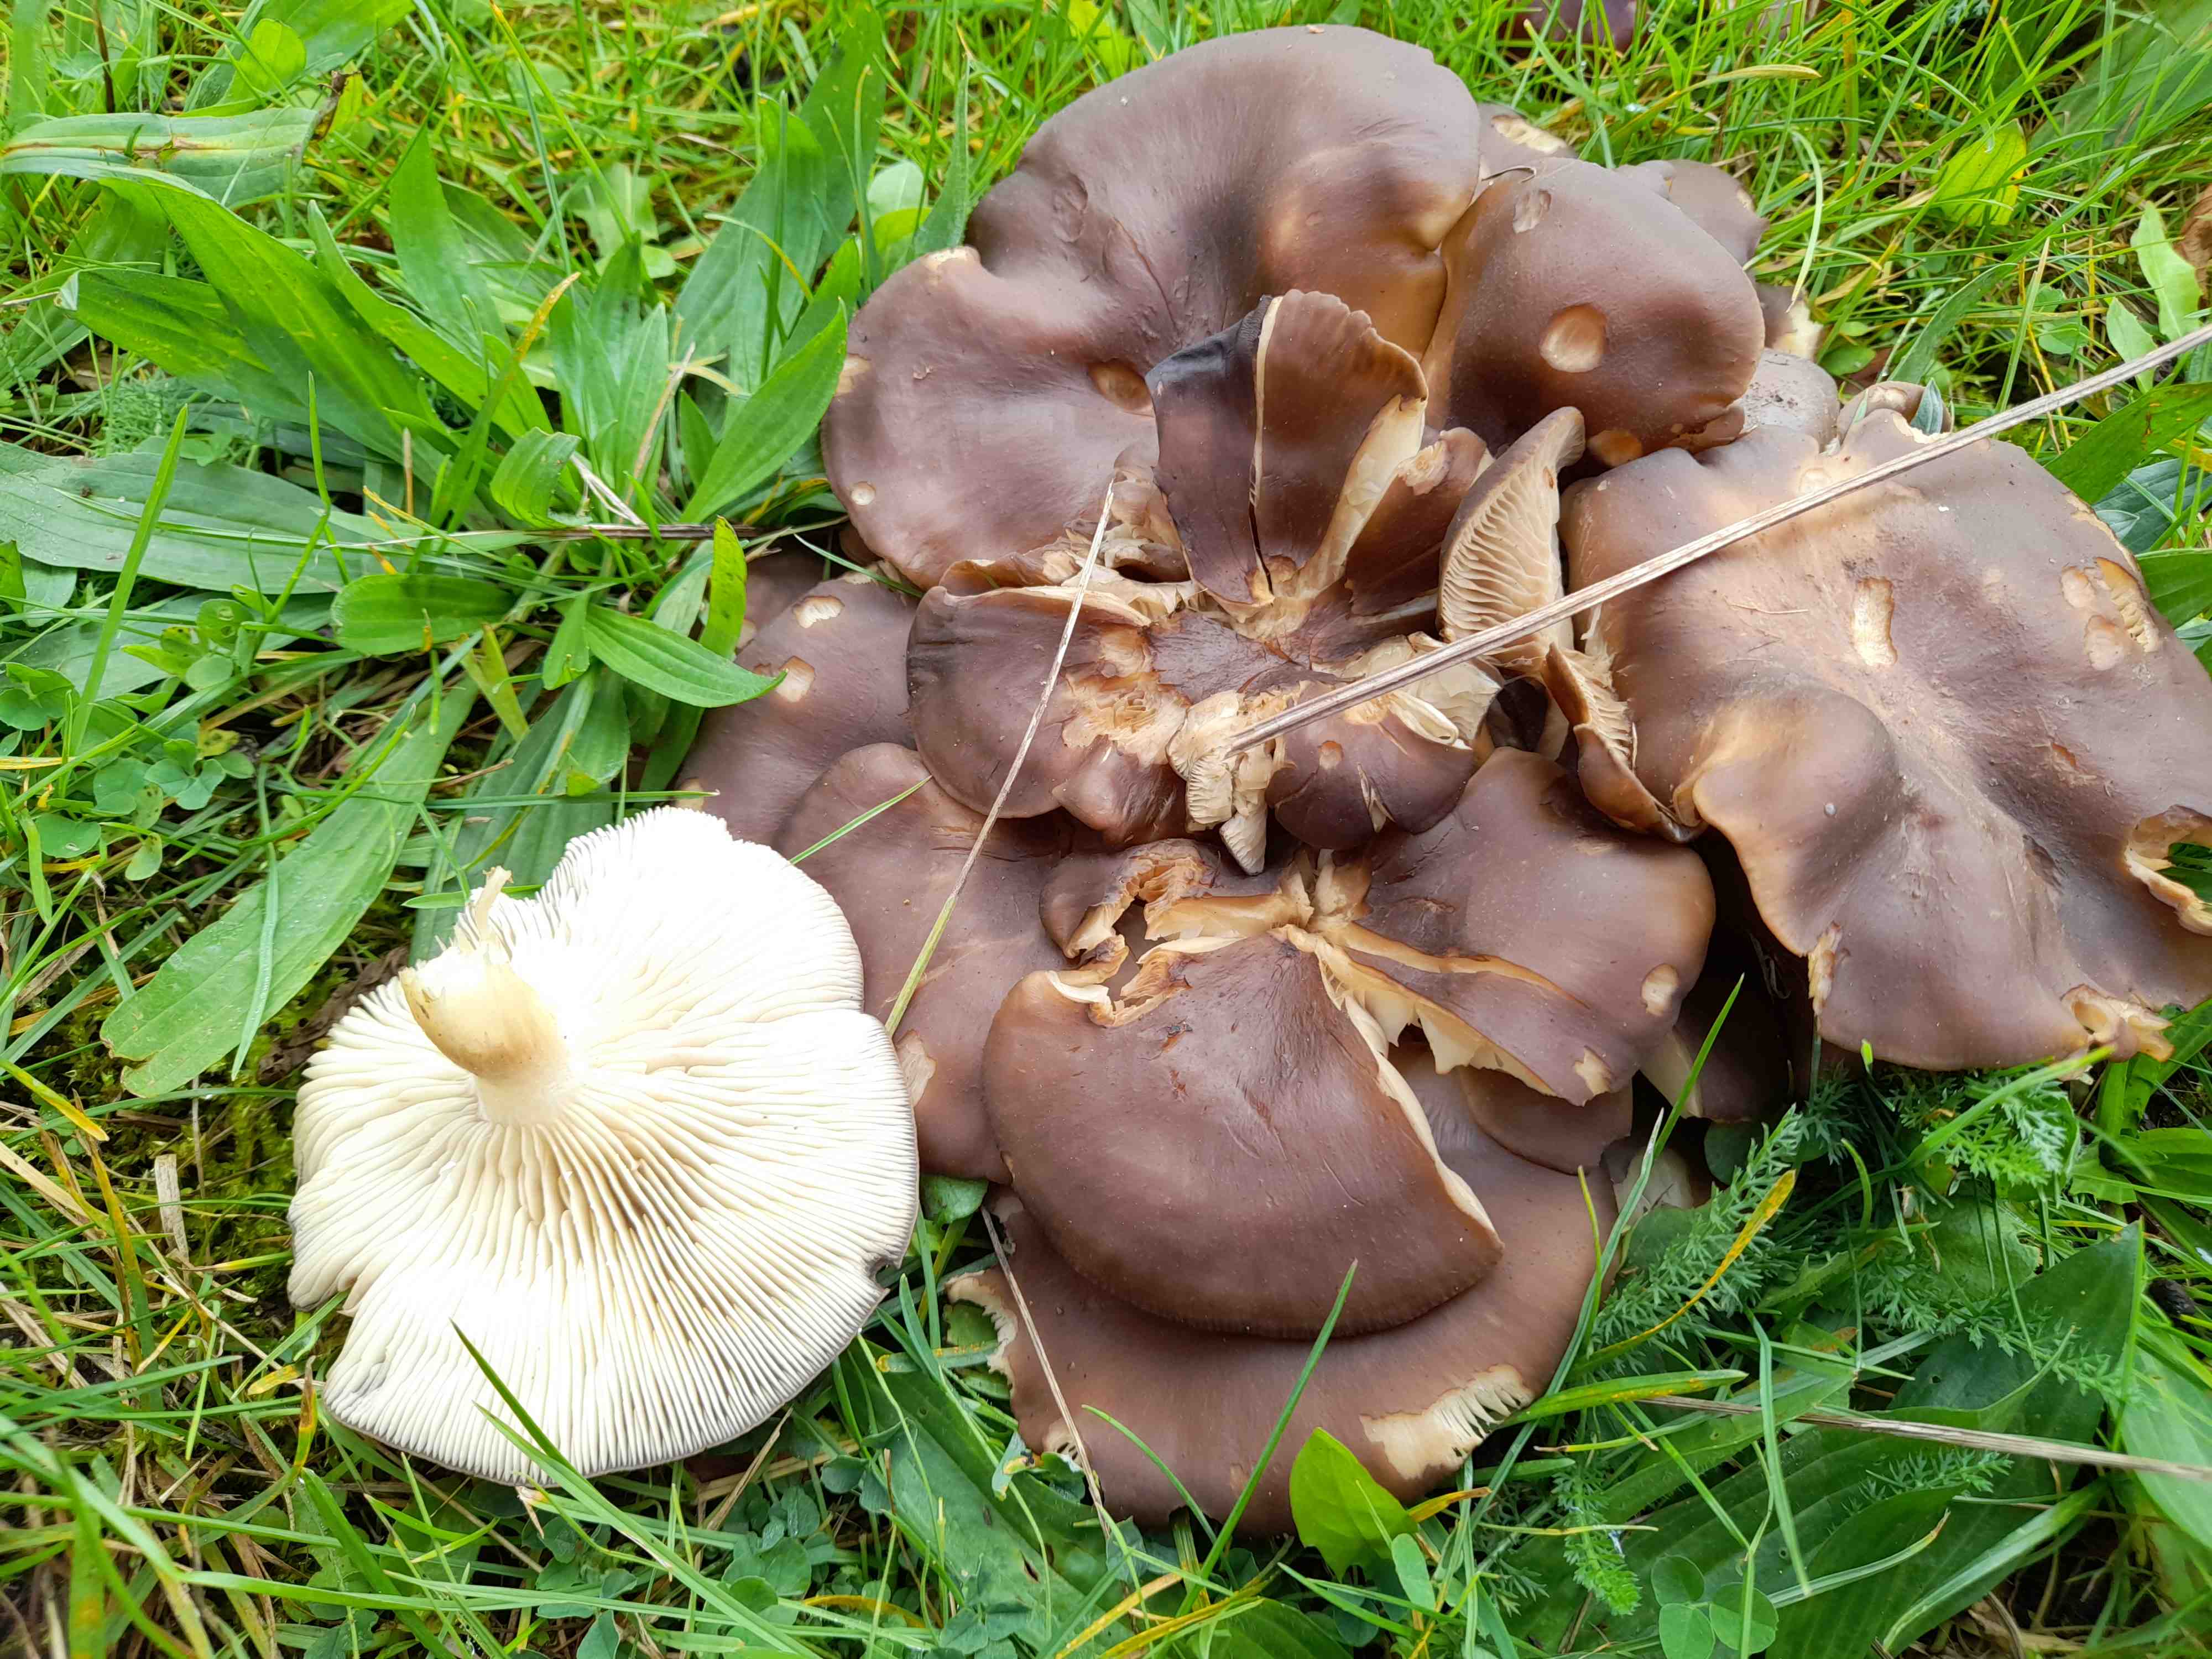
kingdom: Fungi
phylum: Basidiomycota
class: Agaricomycetes
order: Agaricales
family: Lyophyllaceae
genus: Lyophyllum
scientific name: Lyophyllum decastes
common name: Clustered domecap
